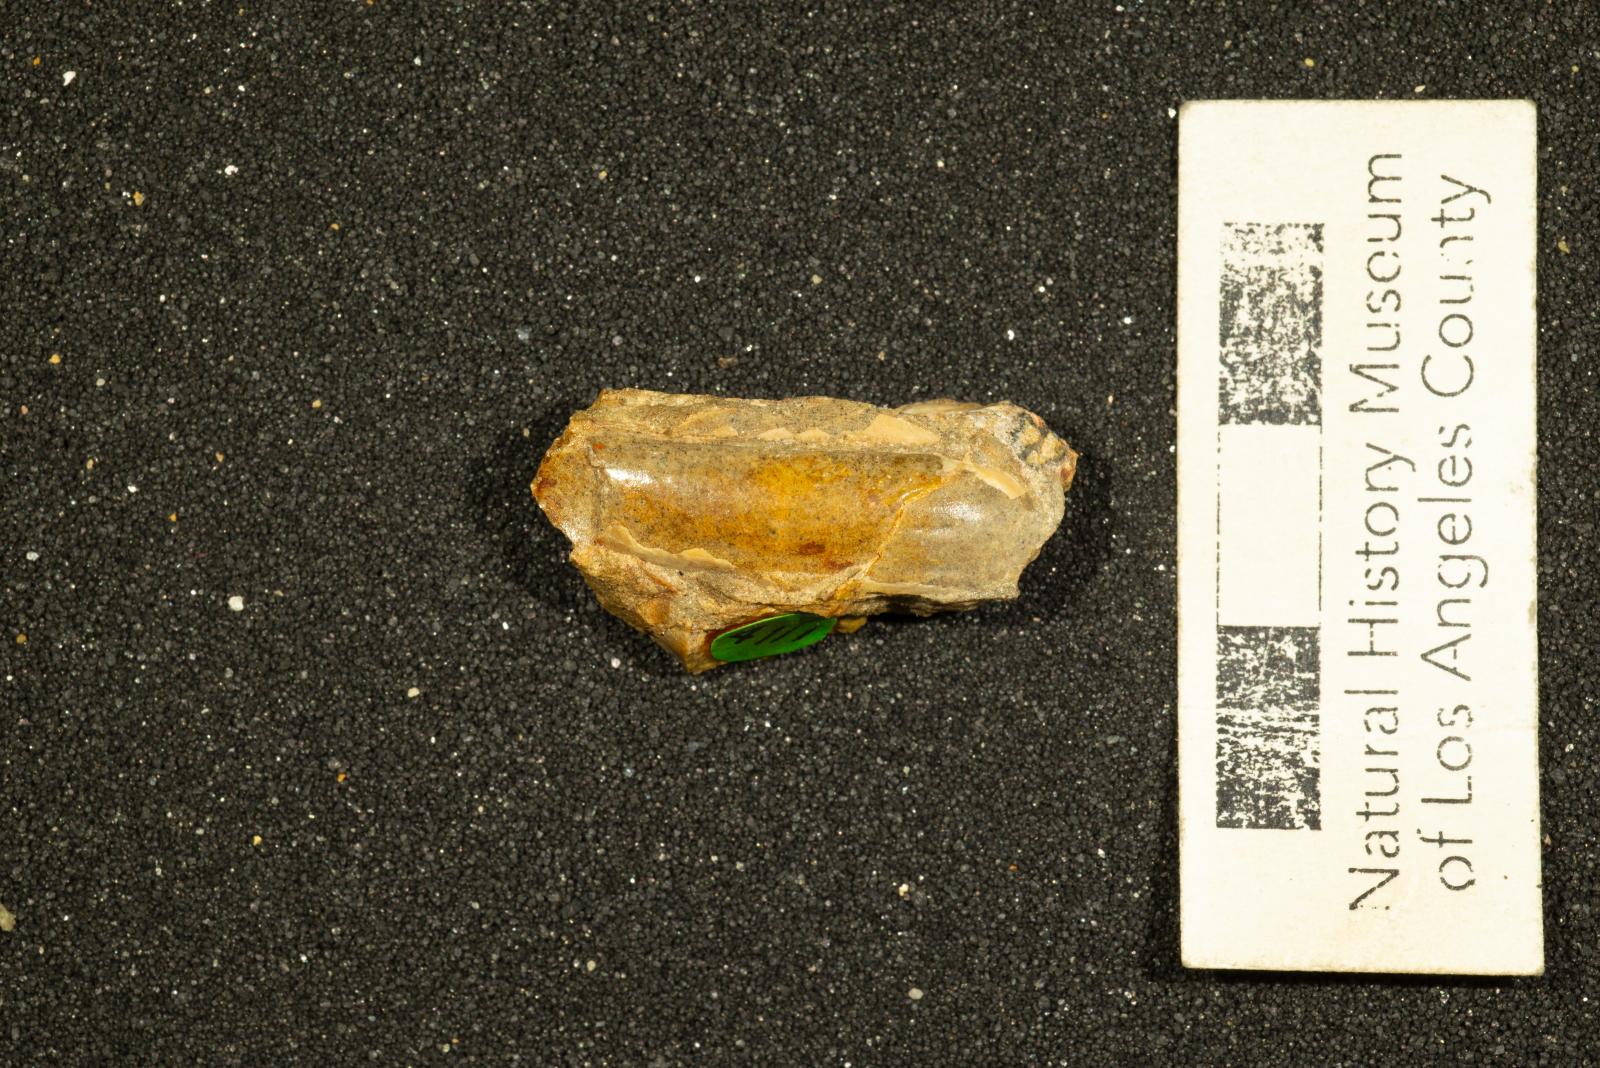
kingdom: Animalia
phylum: Mollusca
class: Bivalvia
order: Unionida
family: Iridinidae
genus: Leptosolen
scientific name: Leptosolen
